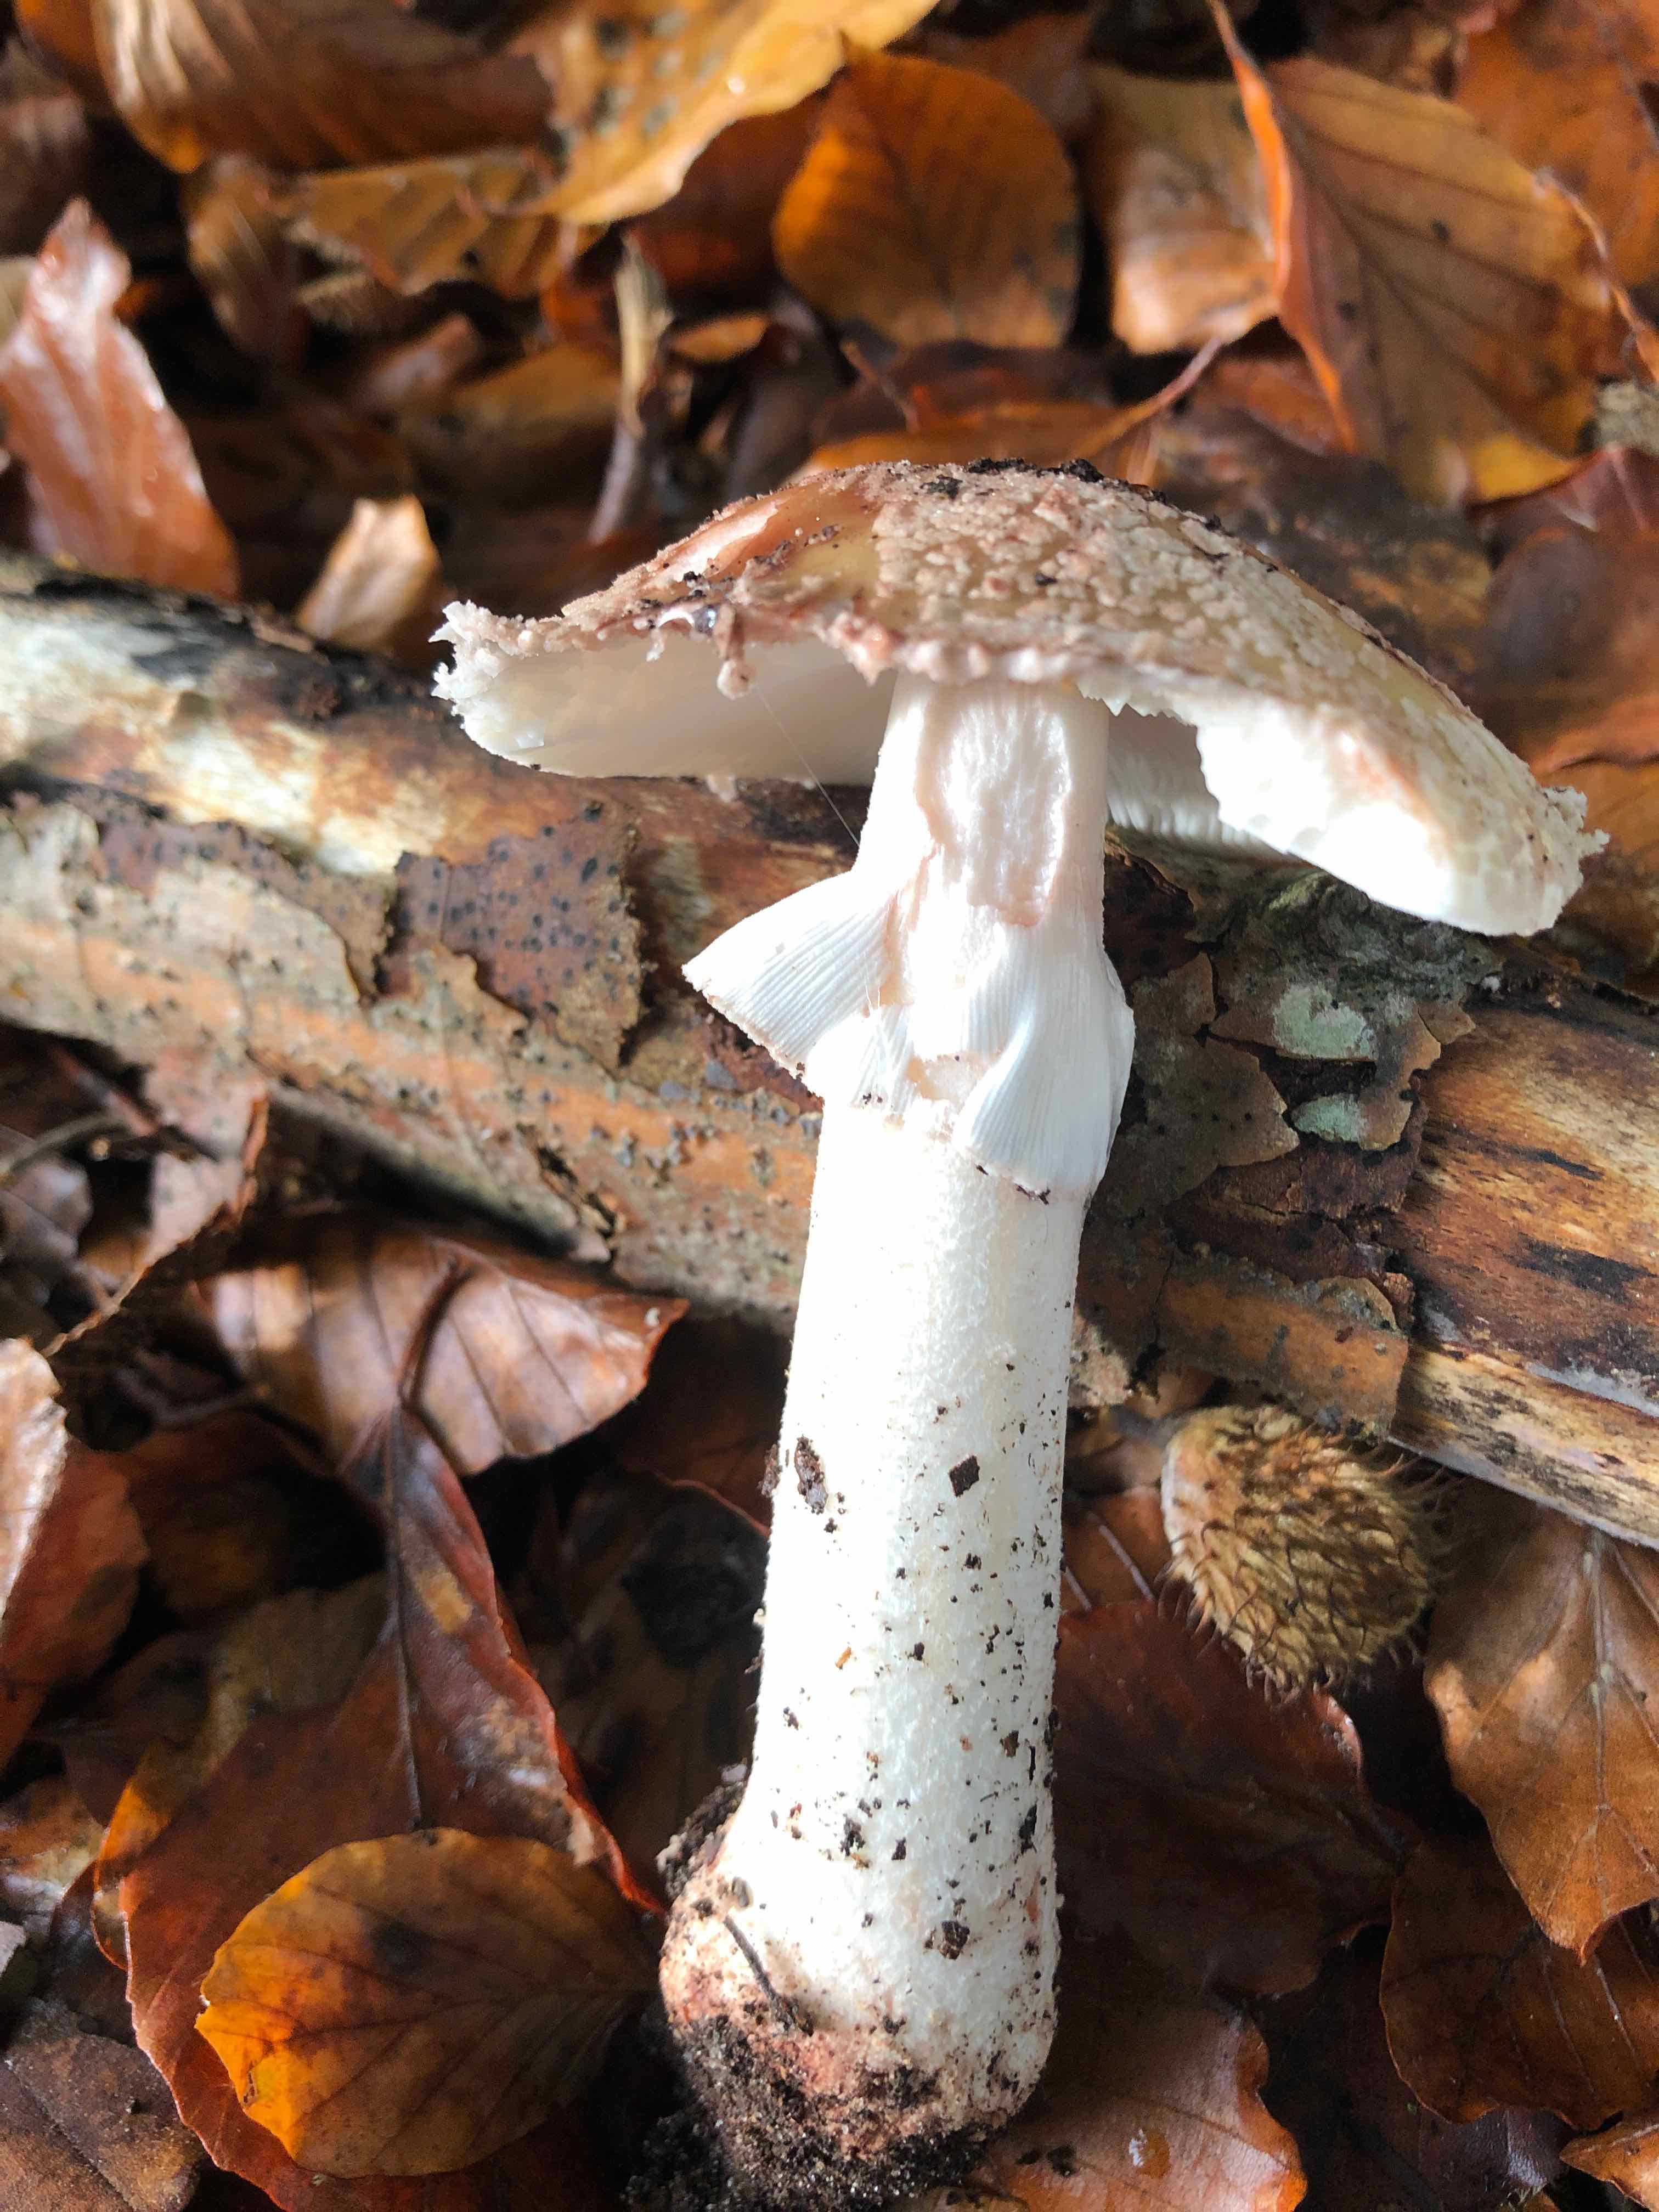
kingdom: Fungi
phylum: Basidiomycota
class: Agaricomycetes
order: Agaricales
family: Amanitaceae
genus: Amanita
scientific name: Amanita rubescens
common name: rødmende fluesvamp
